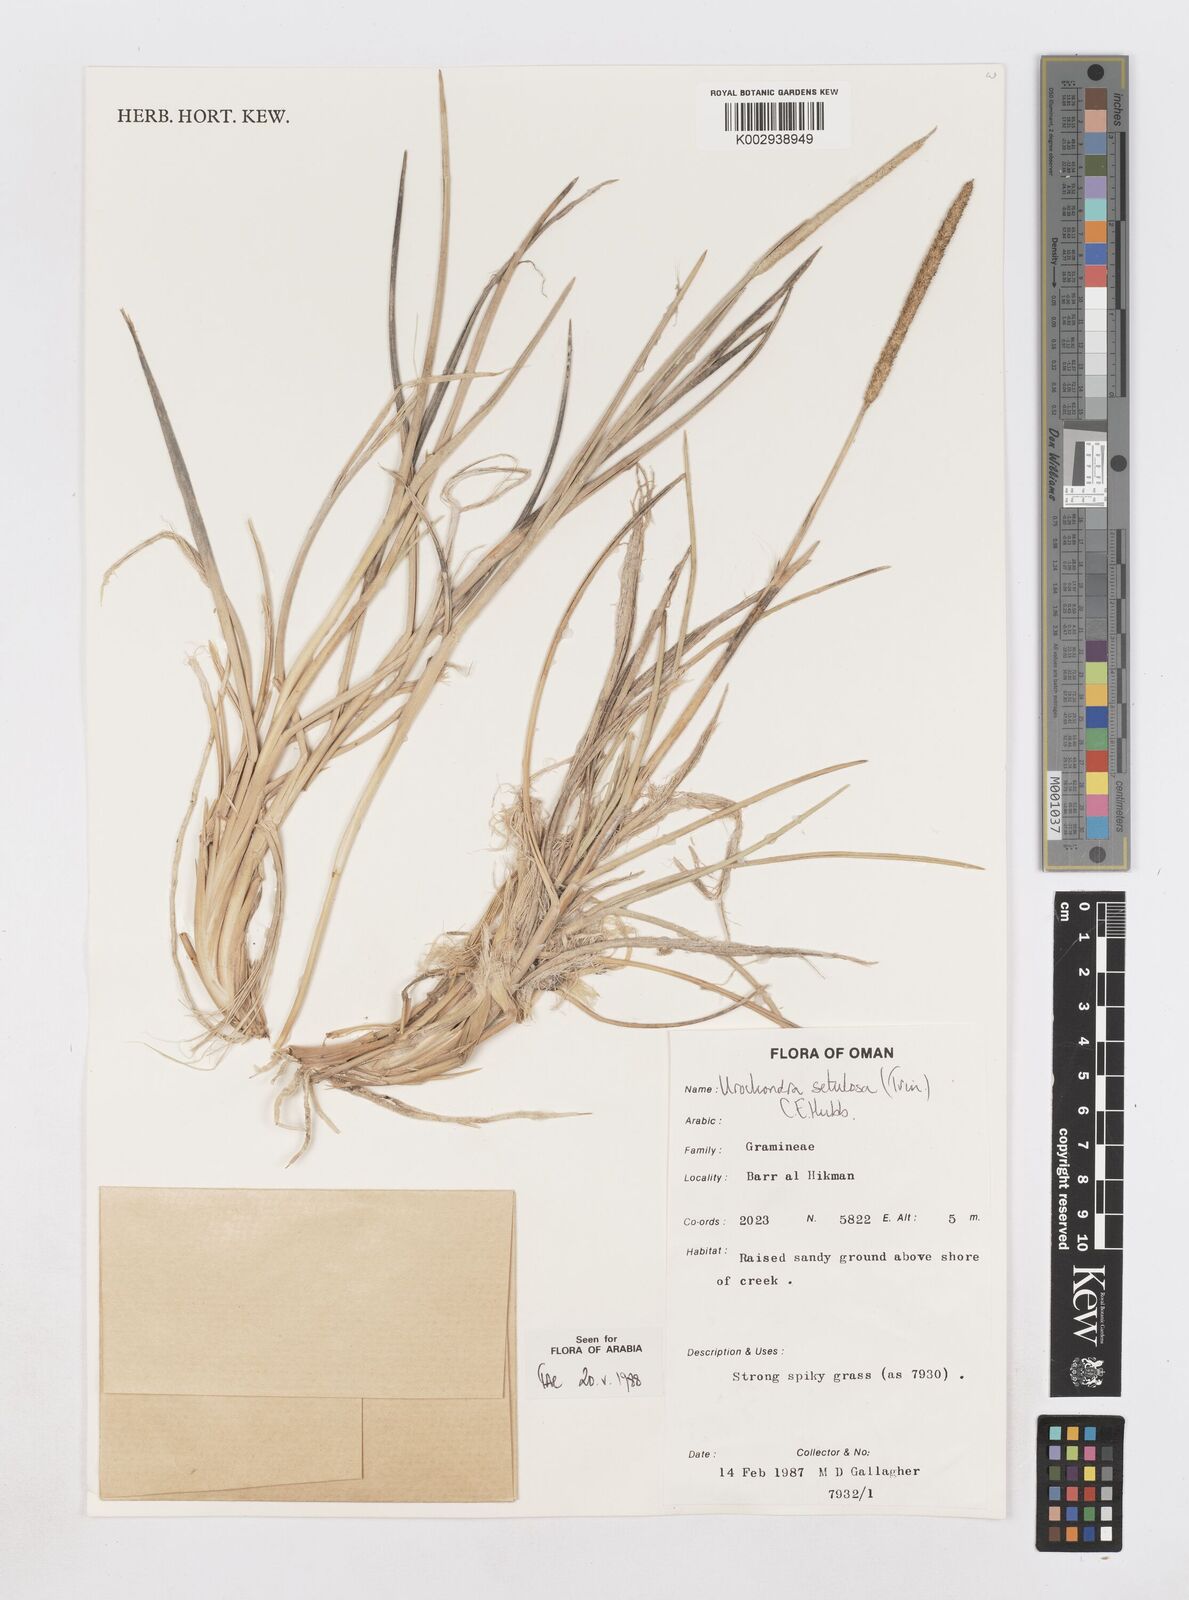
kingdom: Plantae
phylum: Tracheophyta
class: Liliopsida
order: Poales
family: Poaceae
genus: Urochondra
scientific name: Urochondra setulosa
